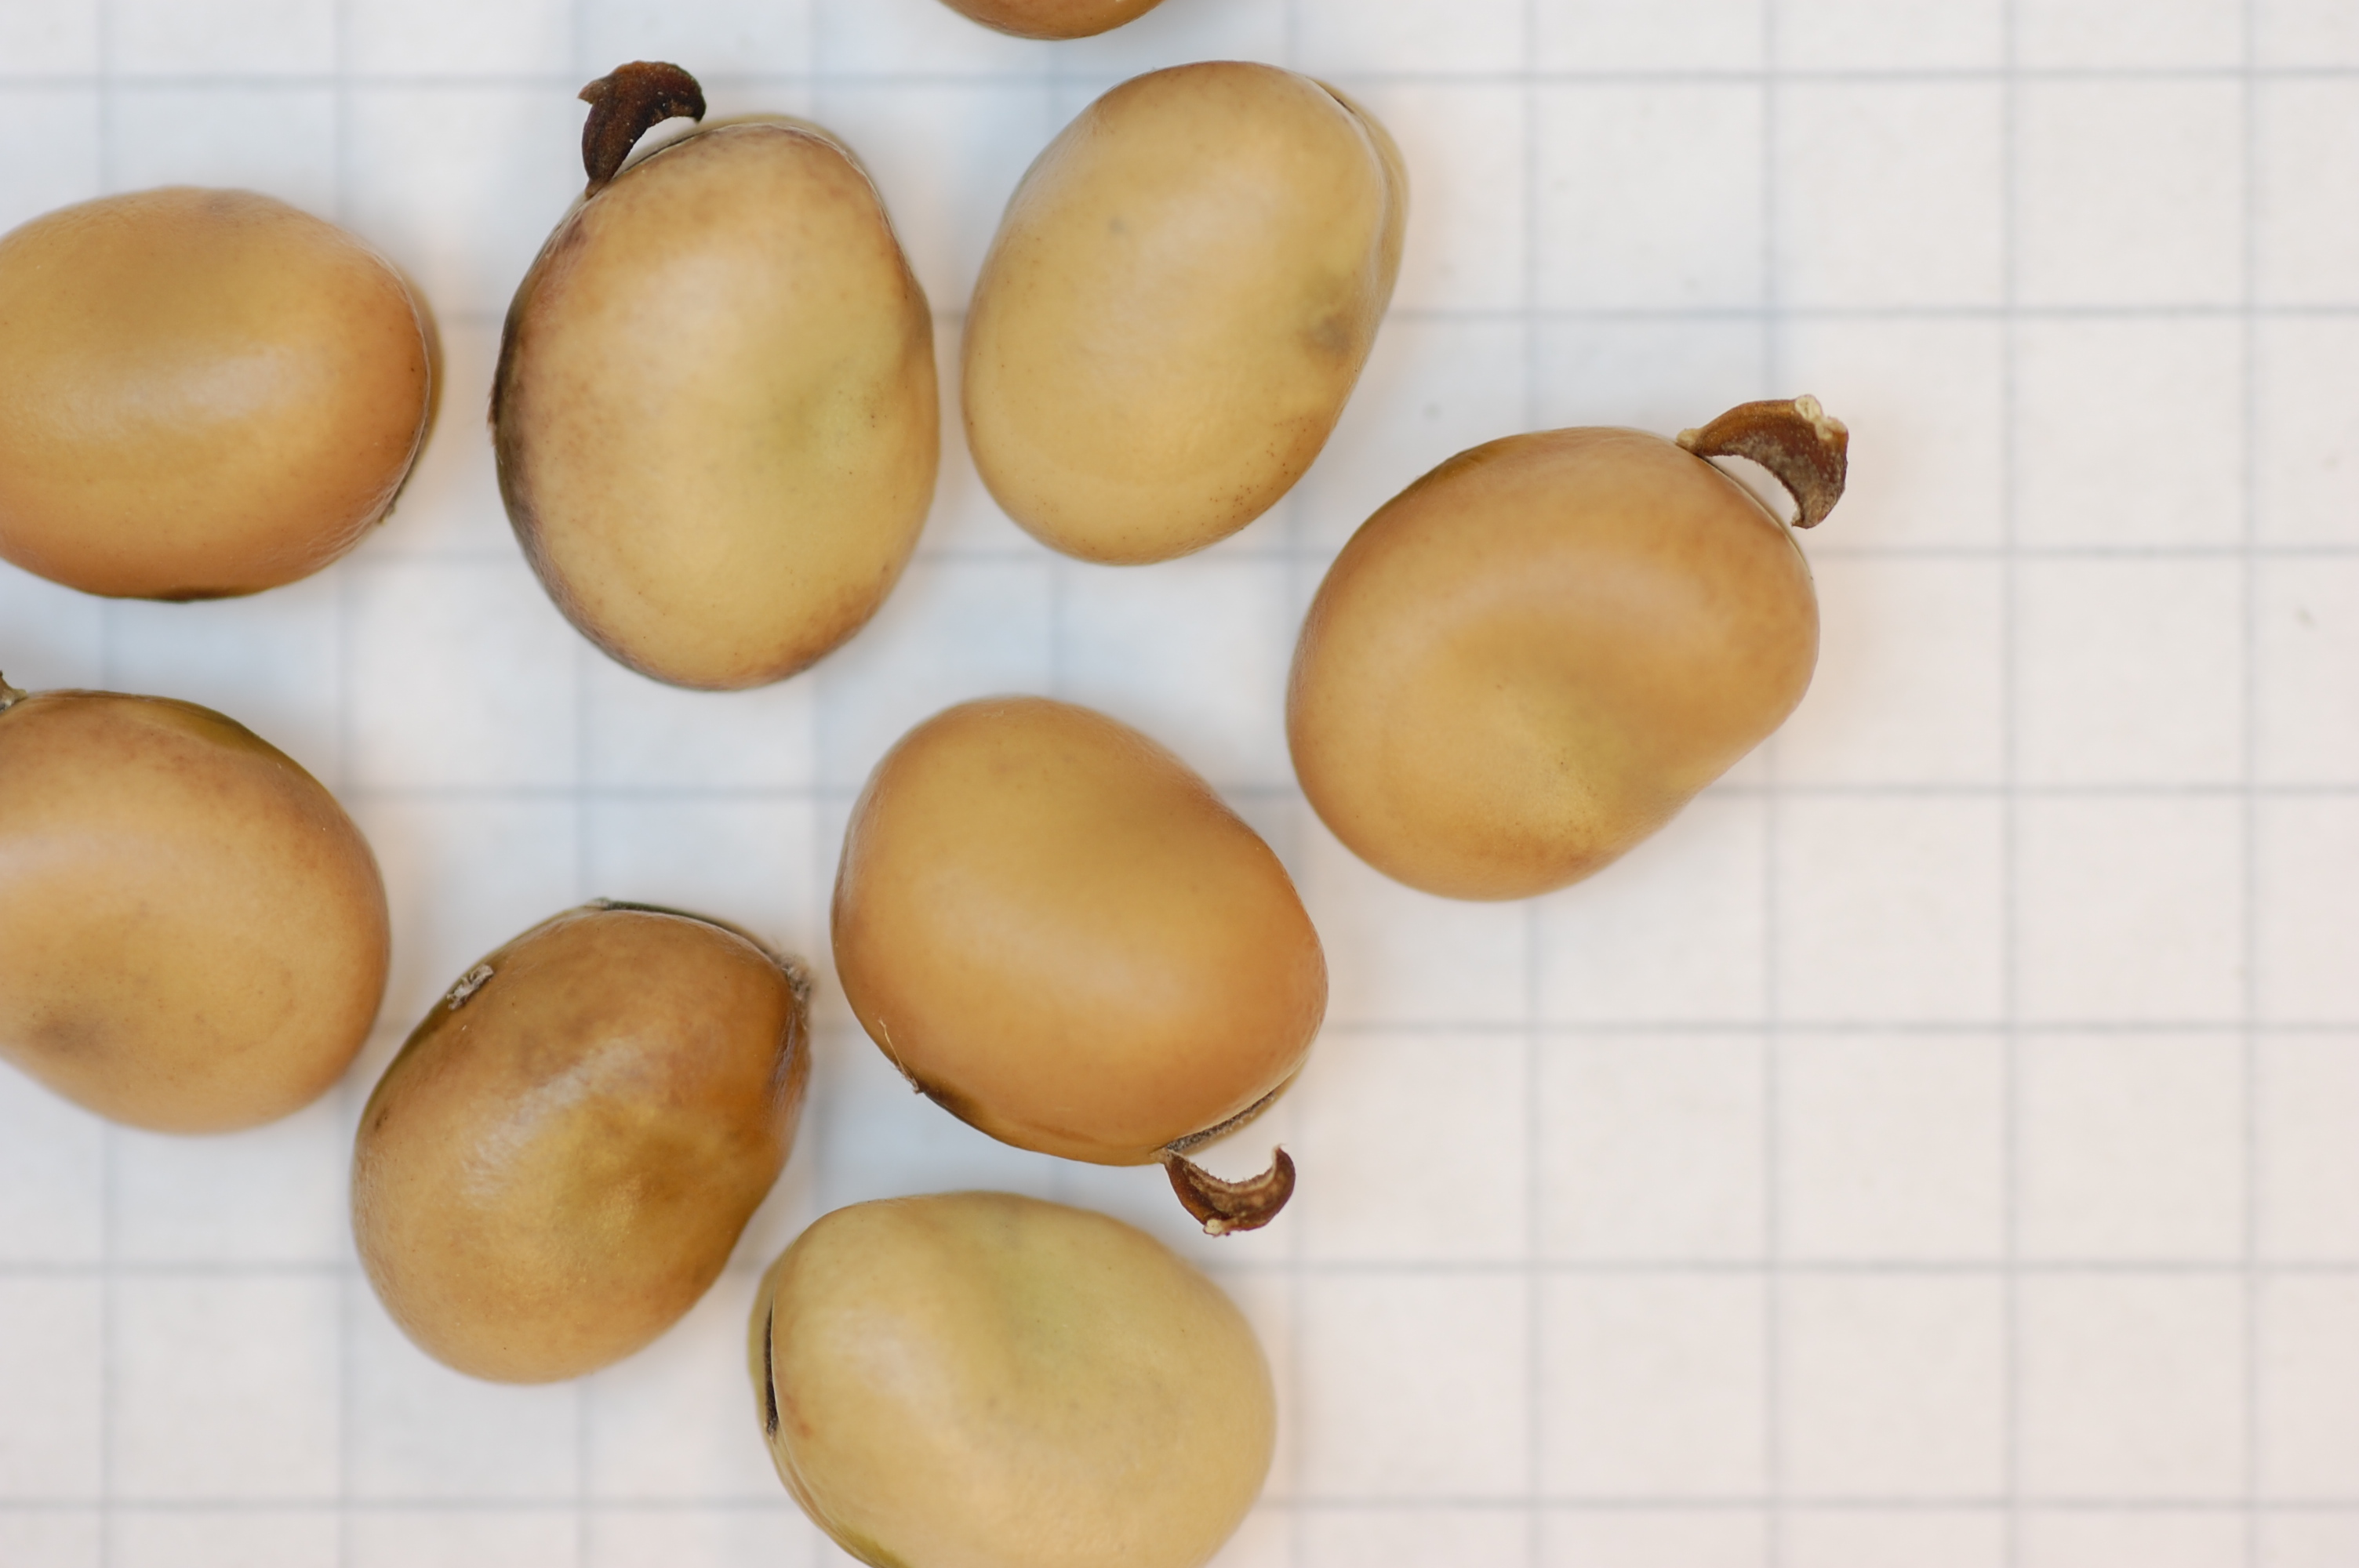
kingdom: Plantae
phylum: Tracheophyta
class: Magnoliopsida
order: Fabales
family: Fabaceae
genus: Vicia
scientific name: Vicia faba
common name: Broad bean
